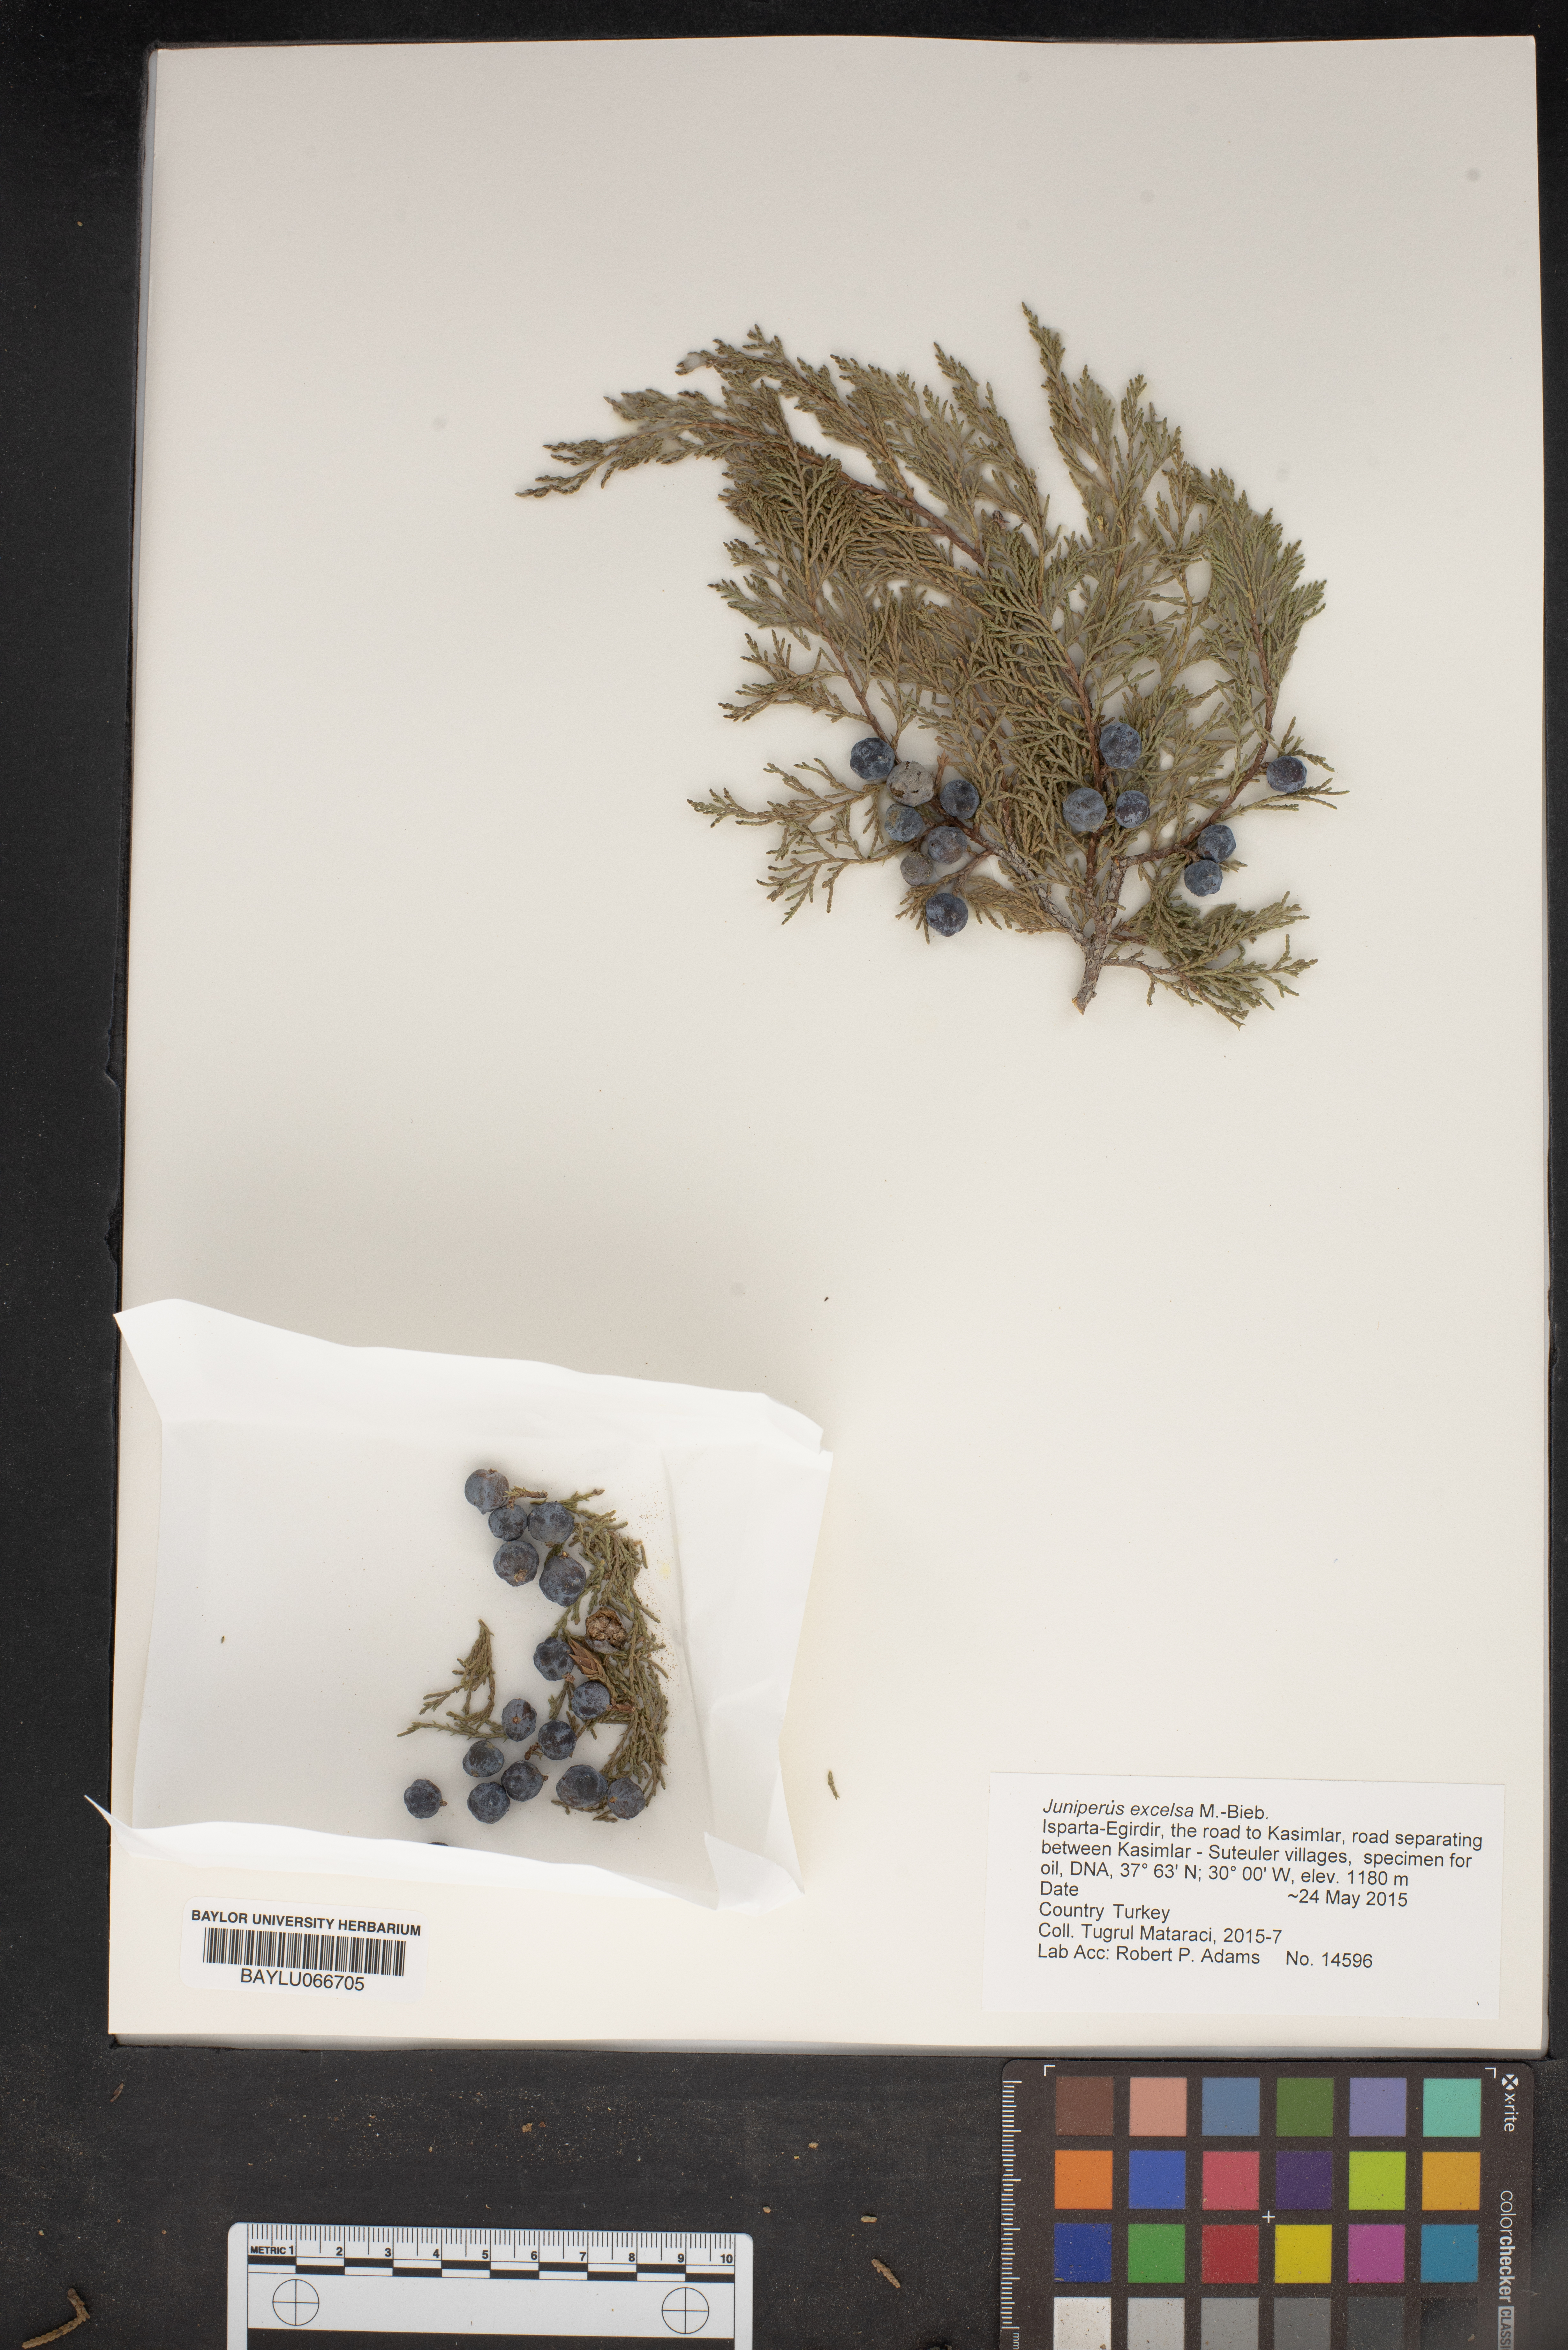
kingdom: Plantae
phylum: Tracheophyta
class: Pinopsida
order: Pinales
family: Cupressaceae
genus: Juniperus
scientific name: Juniperus excelsa
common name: Crimean juniper
